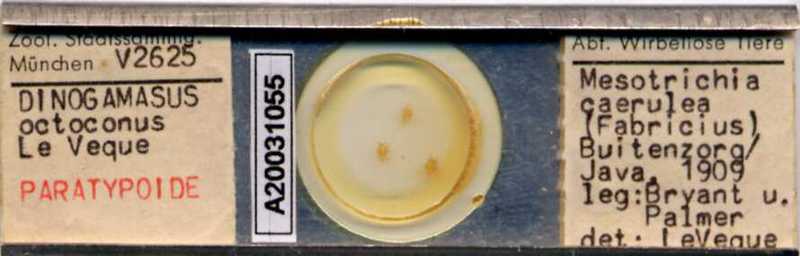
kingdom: Animalia
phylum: Arthropoda
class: Arachnida
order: Mesostigmata
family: Laelapidae
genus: Dinogamasus
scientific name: Dinogamasus
